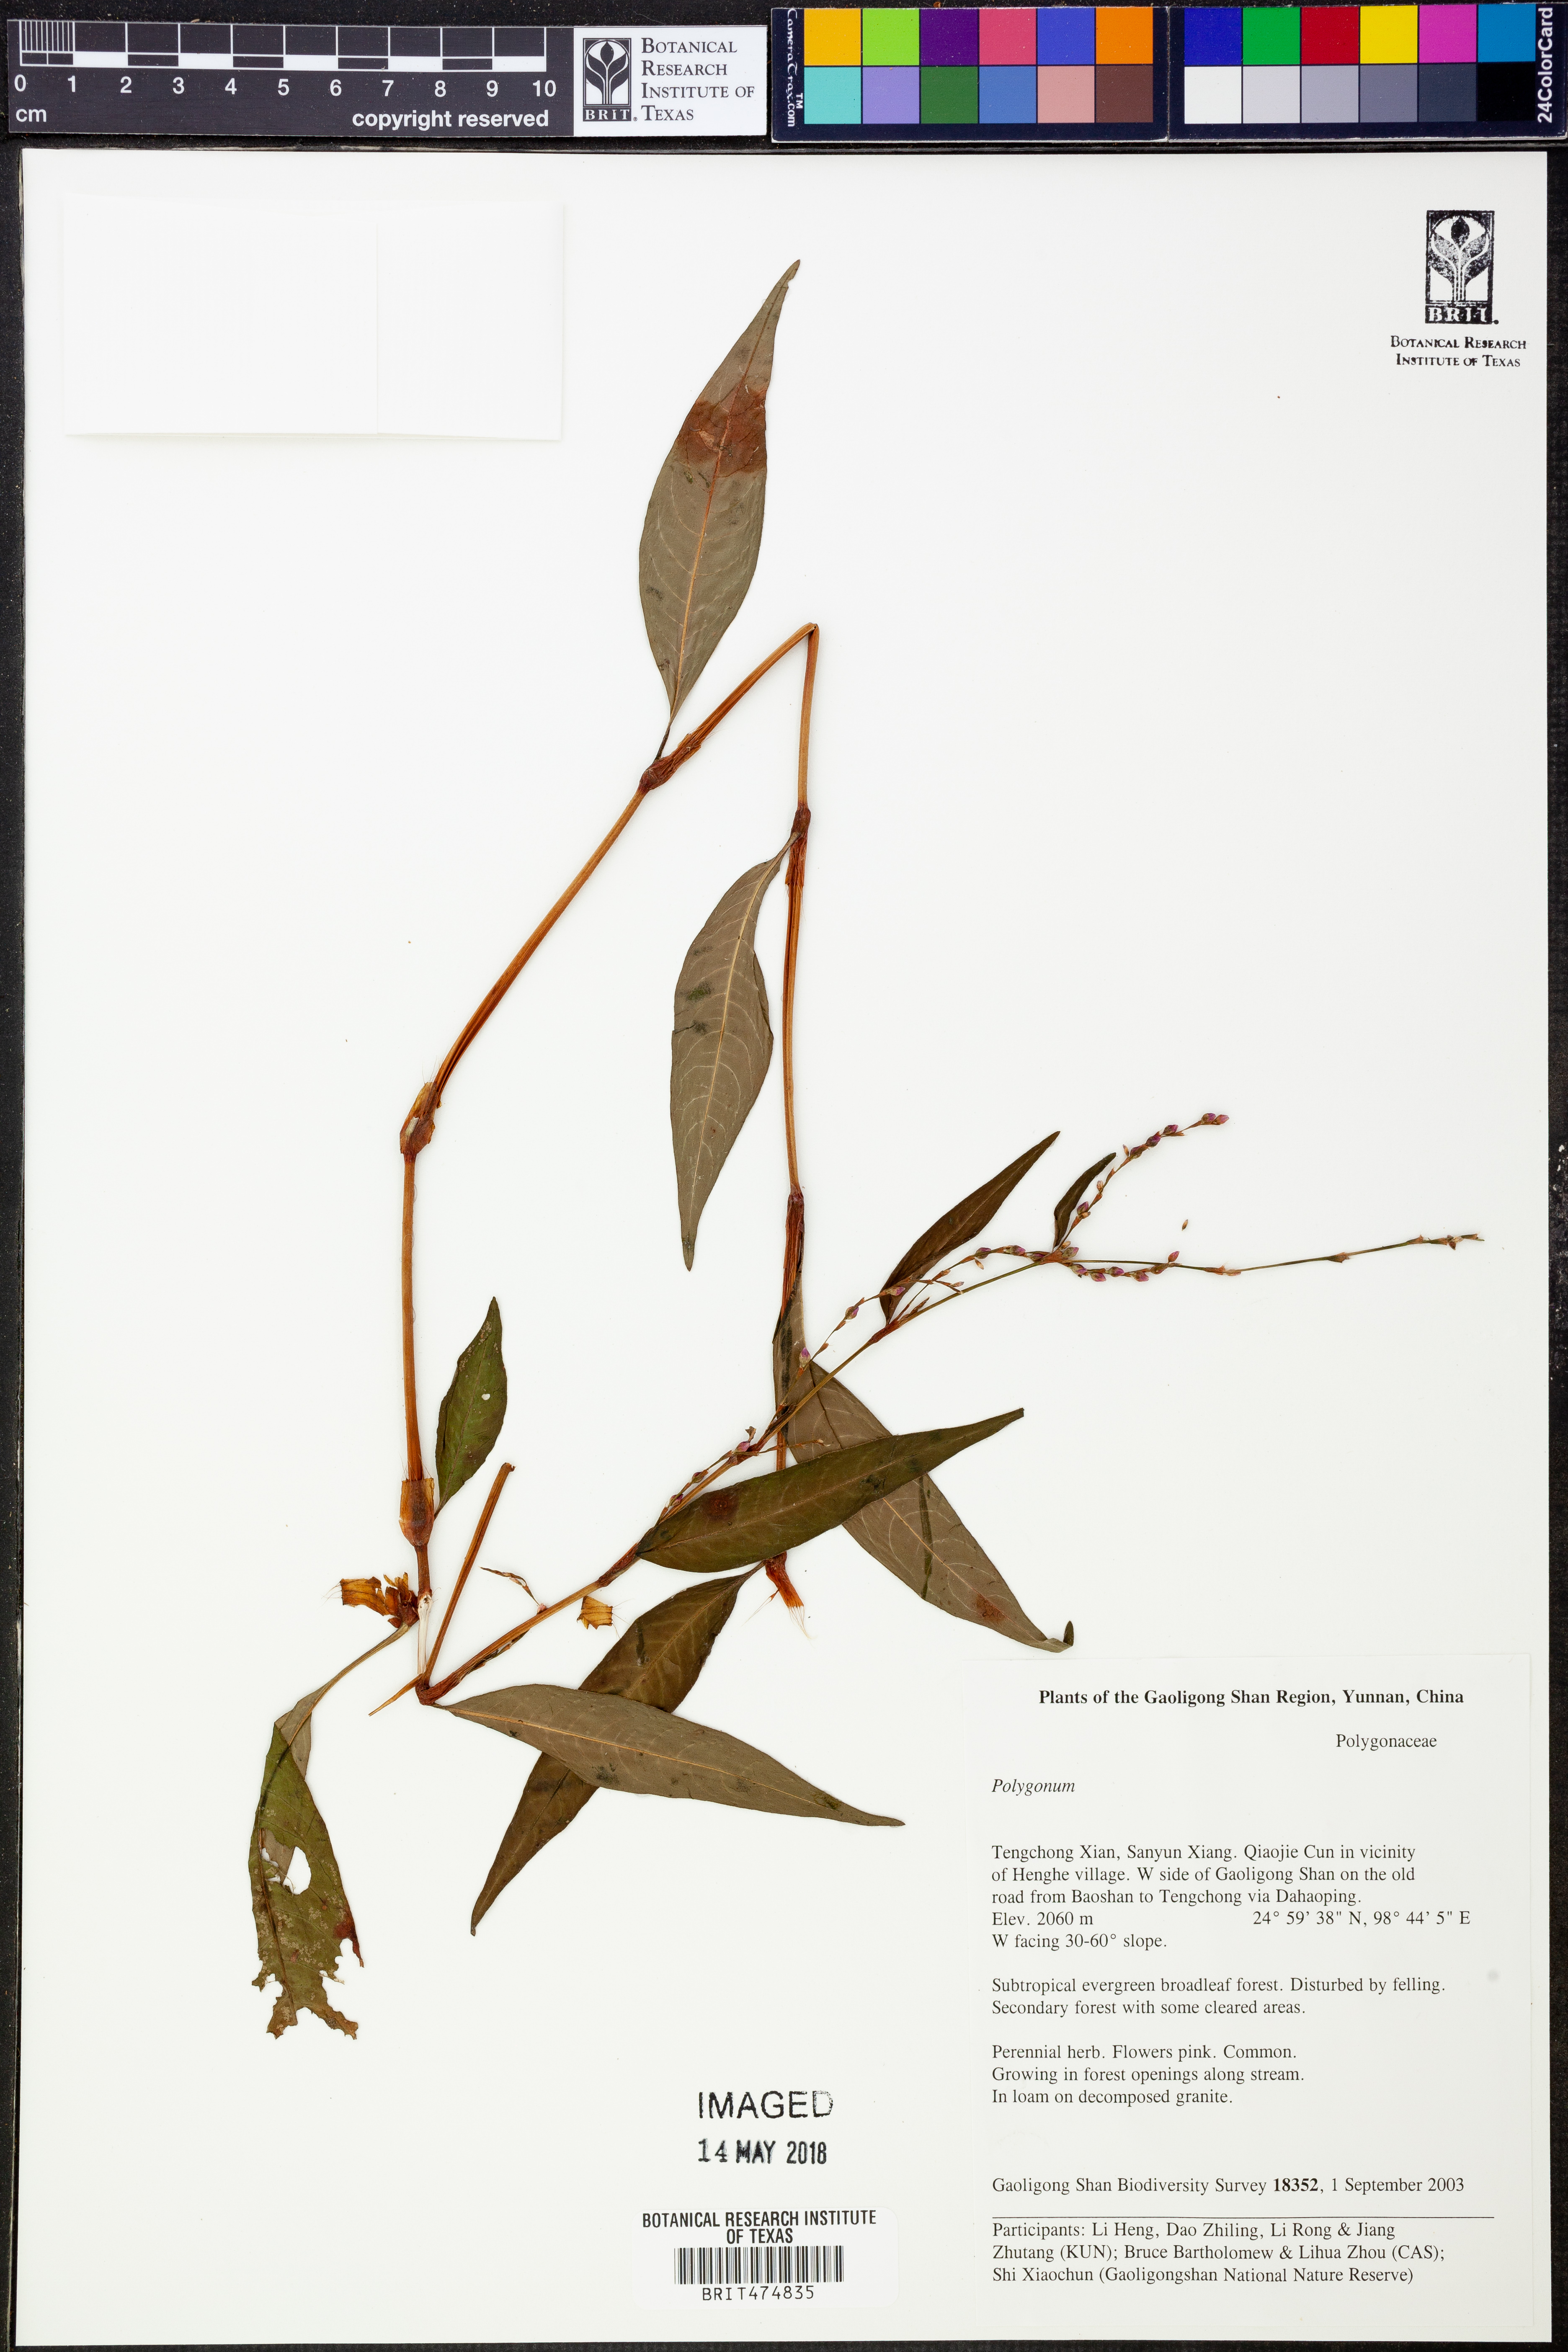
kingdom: Plantae
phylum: Tracheophyta
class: Magnoliopsida
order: Caryophyllales
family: Polygonaceae
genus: Polygonum
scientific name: Polygonum
